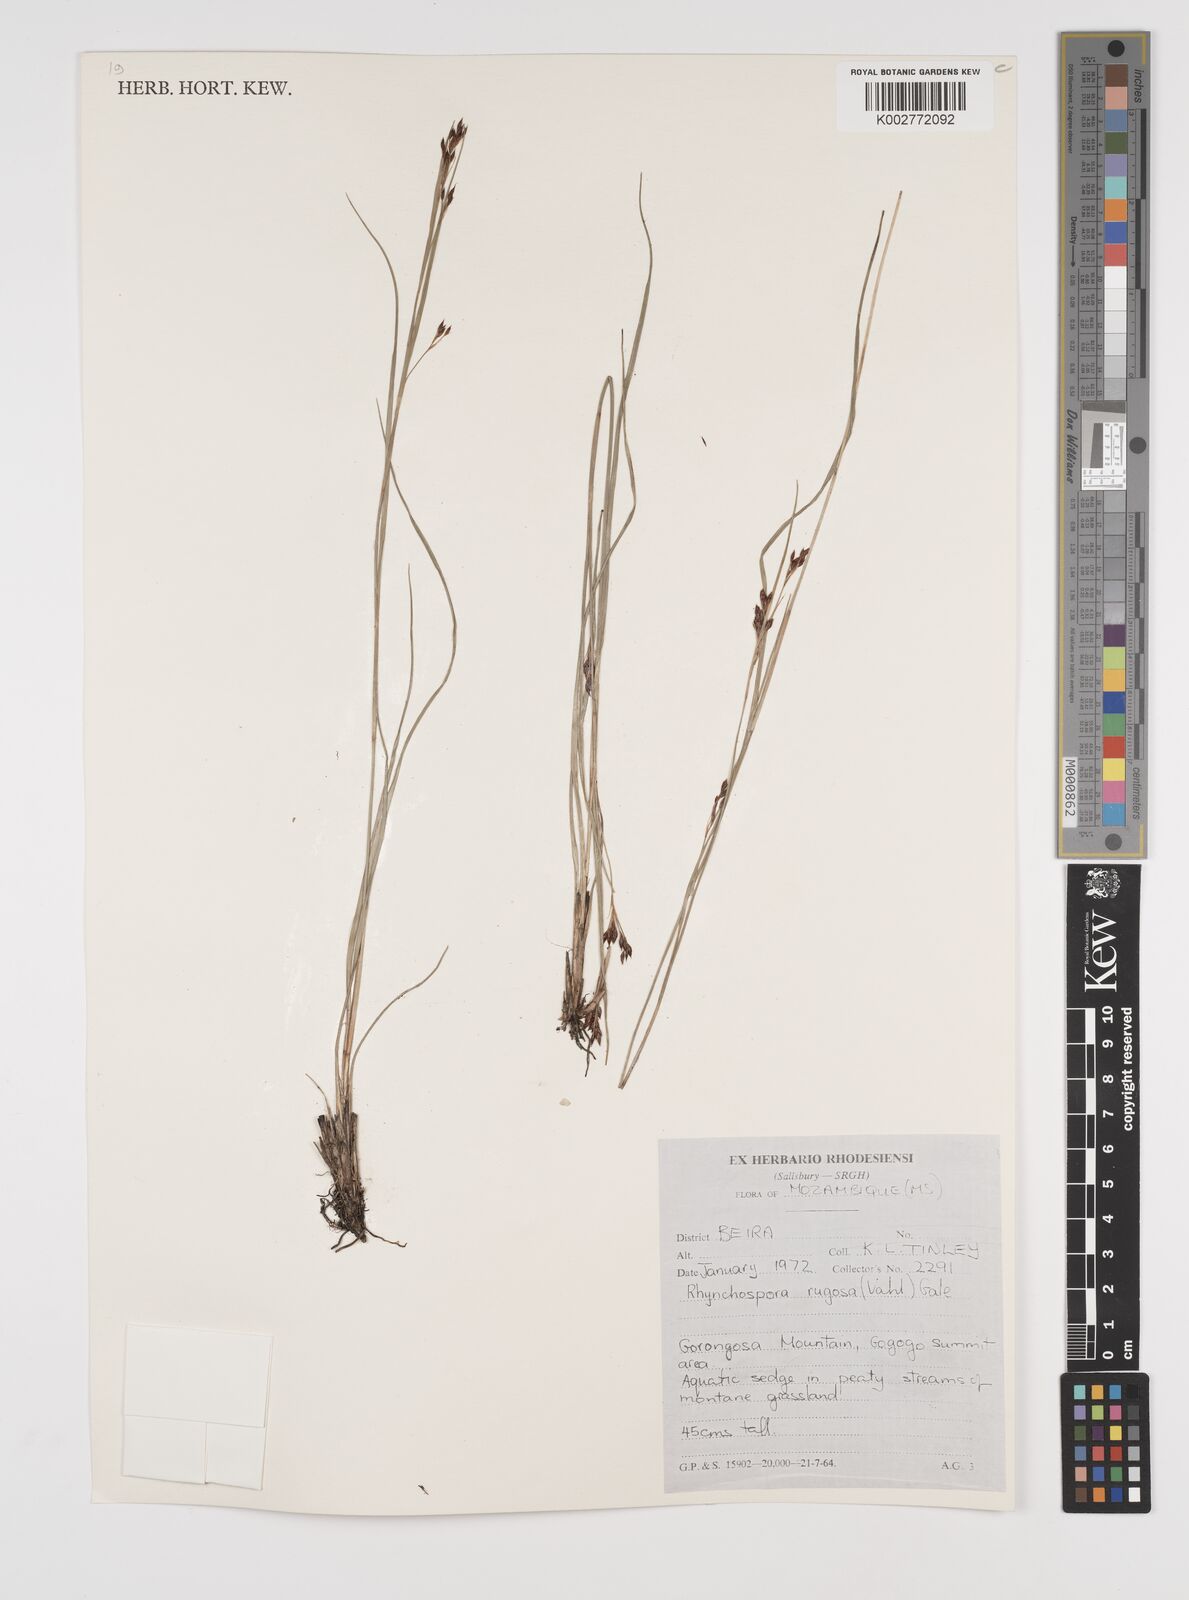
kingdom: Plantae
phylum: Tracheophyta
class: Liliopsida
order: Poales
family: Cyperaceae
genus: Rhynchospora
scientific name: Rhynchospora rugosa
